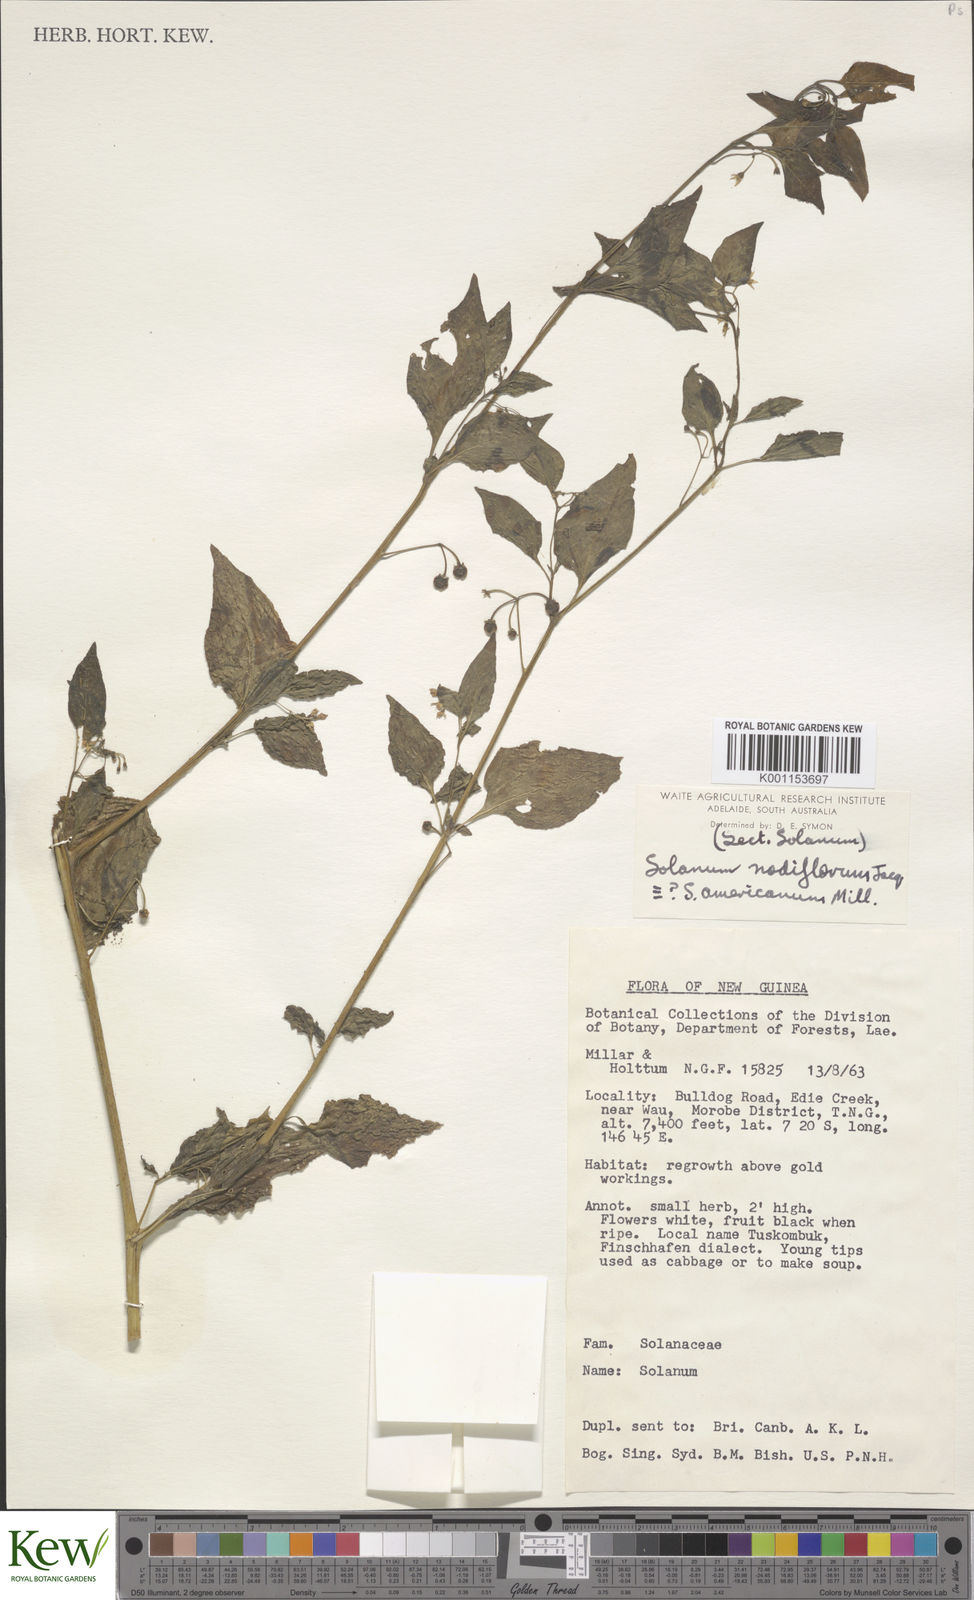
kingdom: Plantae
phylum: Tracheophyta
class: Magnoliopsida
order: Solanales
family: Solanaceae
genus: Solanum
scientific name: Solanum americanum
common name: American black nightshade
